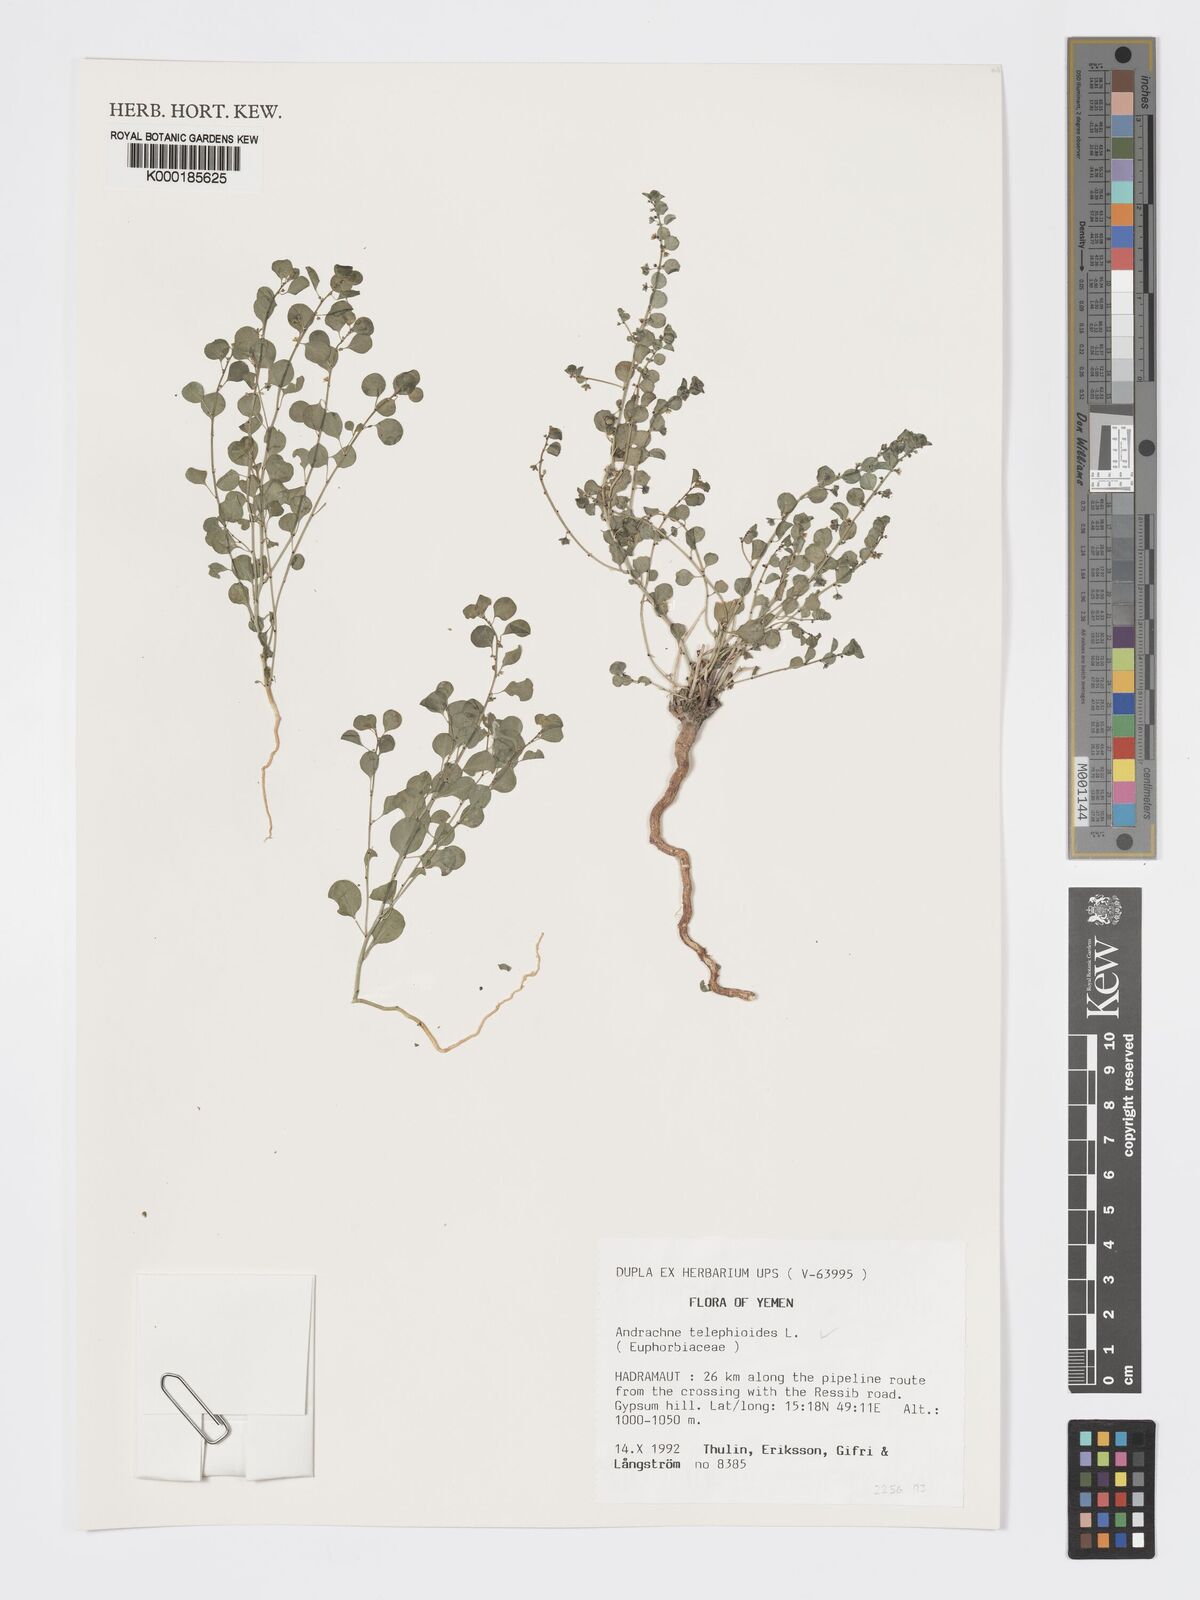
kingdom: Plantae
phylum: Tracheophyta
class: Magnoliopsida
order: Malpighiales
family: Phyllanthaceae
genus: Andrachne
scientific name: Andrachne telephioides
